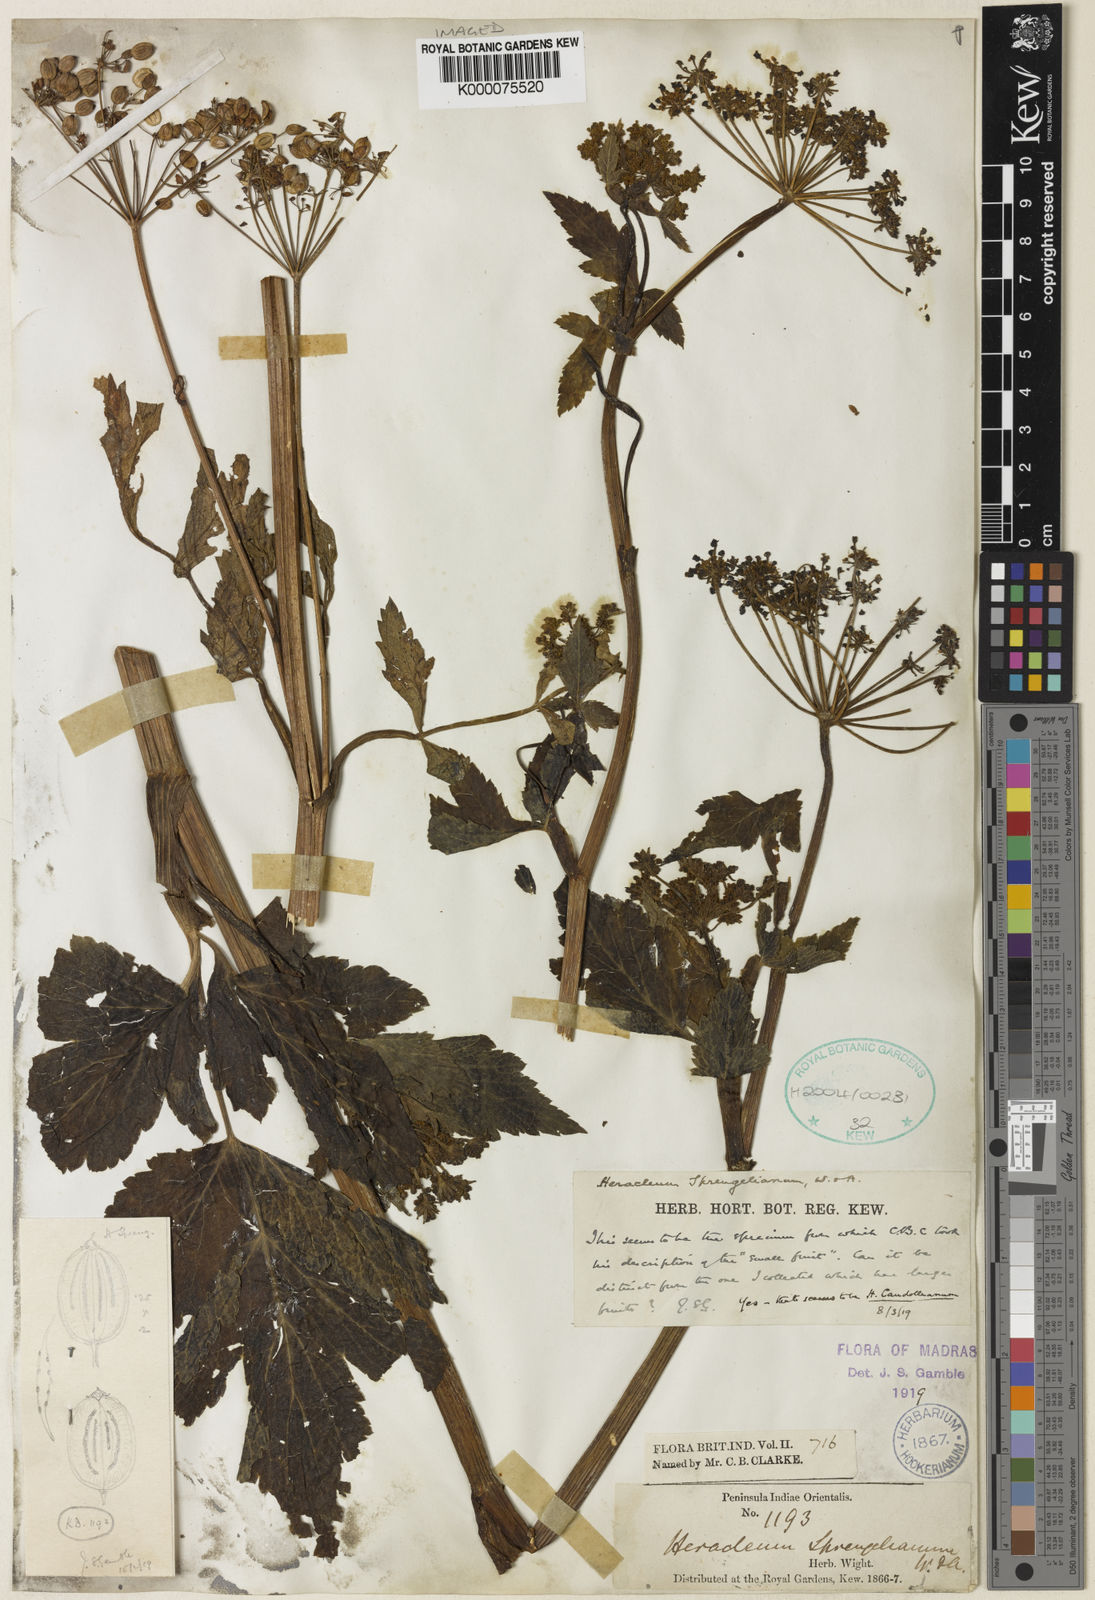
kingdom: Plantae
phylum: Tracheophyta
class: Magnoliopsida
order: Apiales
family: Apiaceae
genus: Tetrataenium
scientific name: Tetrataenium sprengelianum
